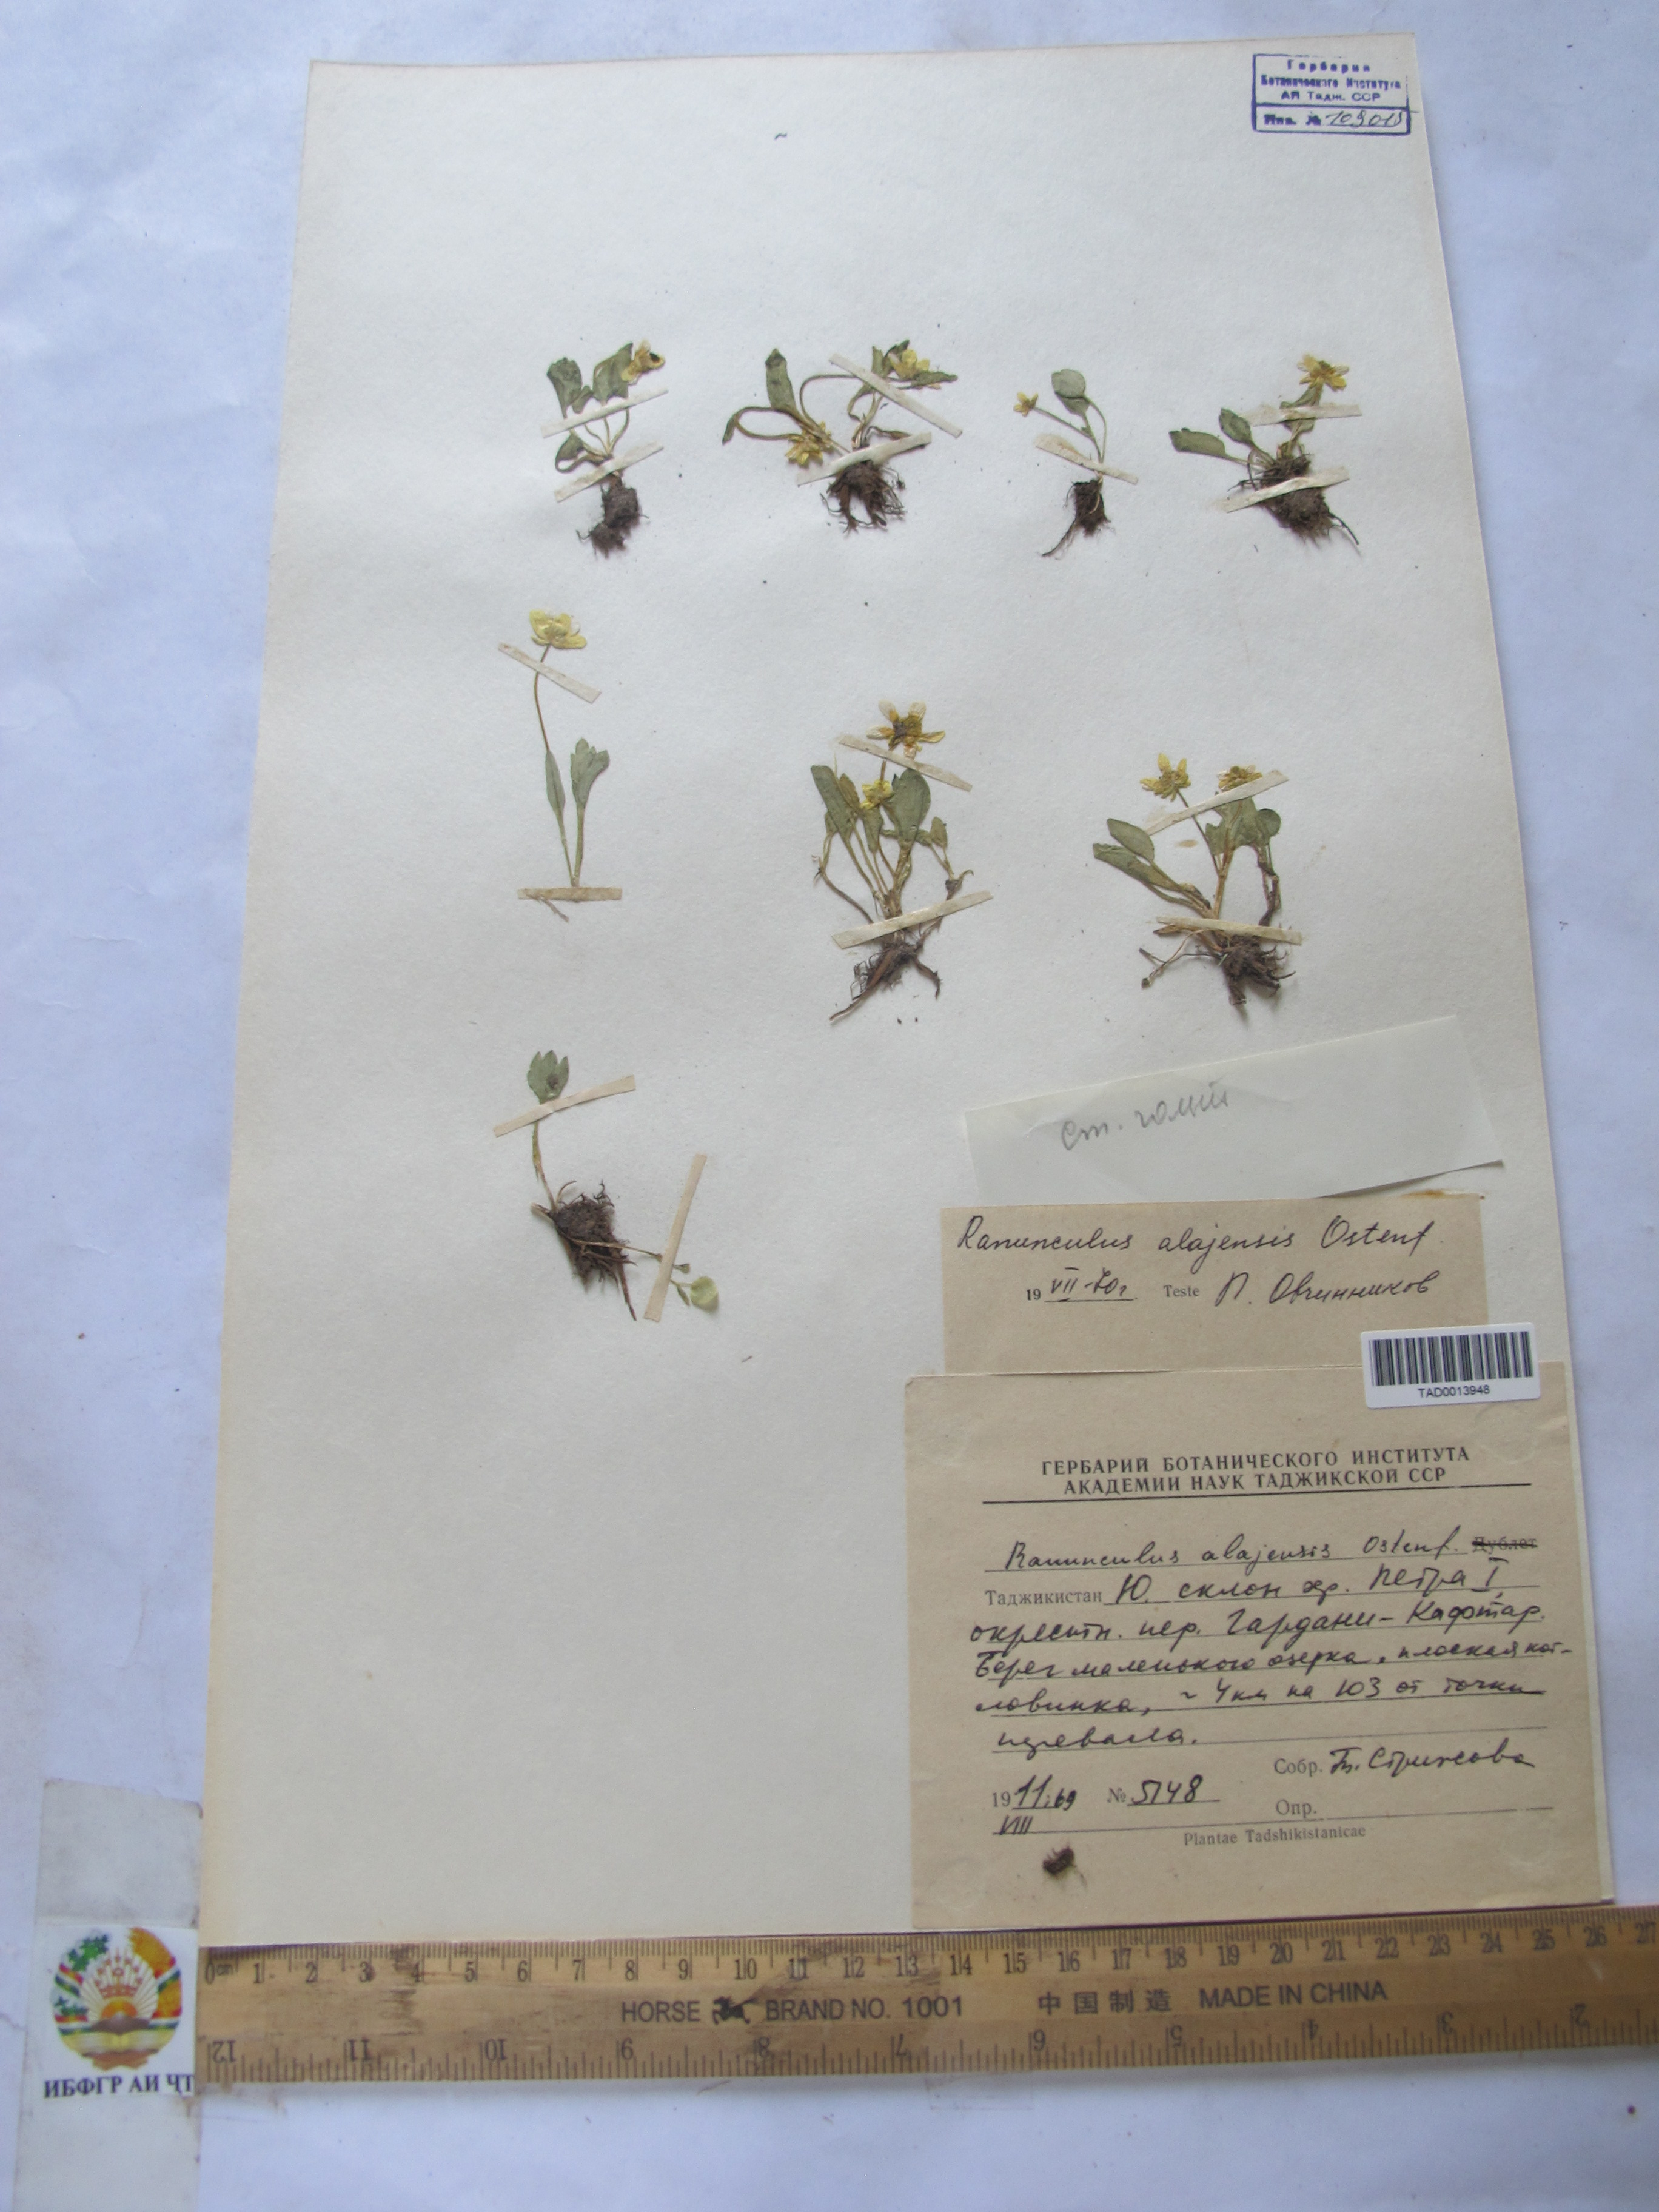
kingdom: Plantae
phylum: Tracheophyta
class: Magnoliopsida
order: Ranunculales
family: Ranunculaceae
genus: Ranunculus
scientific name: Ranunculus alaiensis
